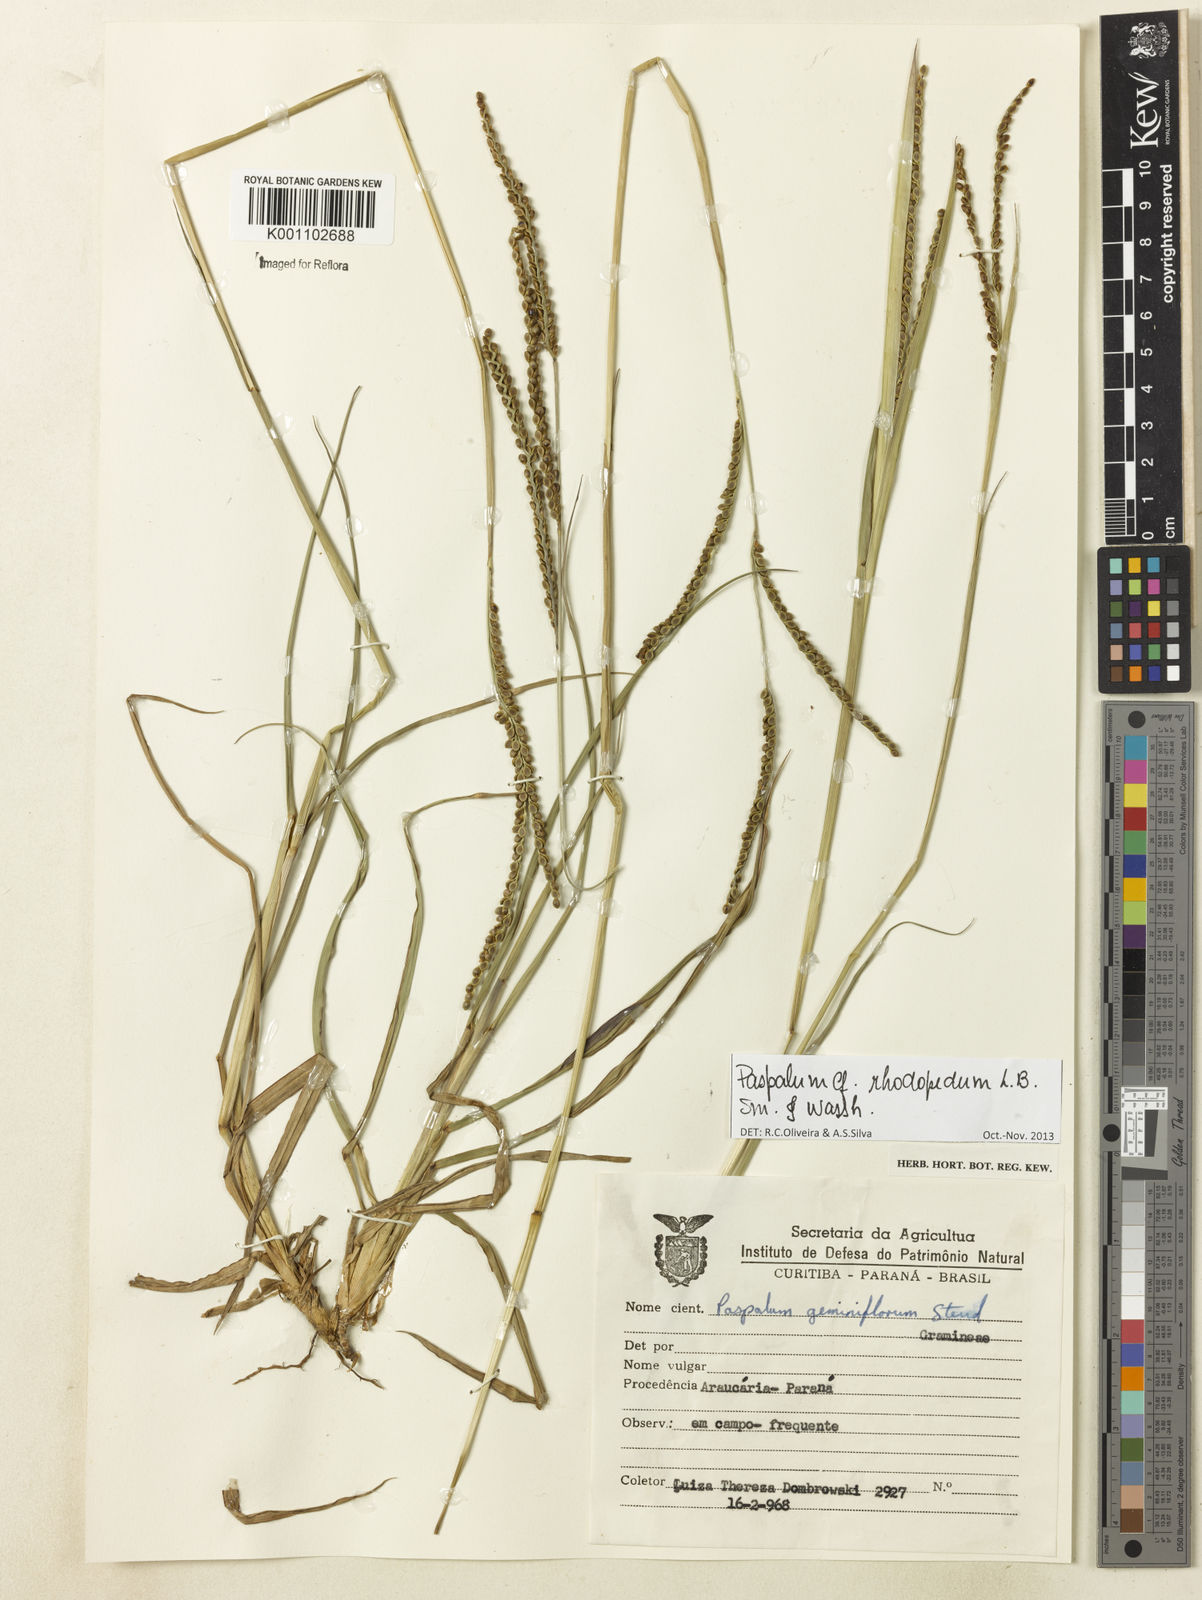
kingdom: Plantae
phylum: Tracheophyta
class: Liliopsida
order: Poales
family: Poaceae
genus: Paspalum
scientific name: Paspalum guenoarum
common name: Wintergreen paspalum
